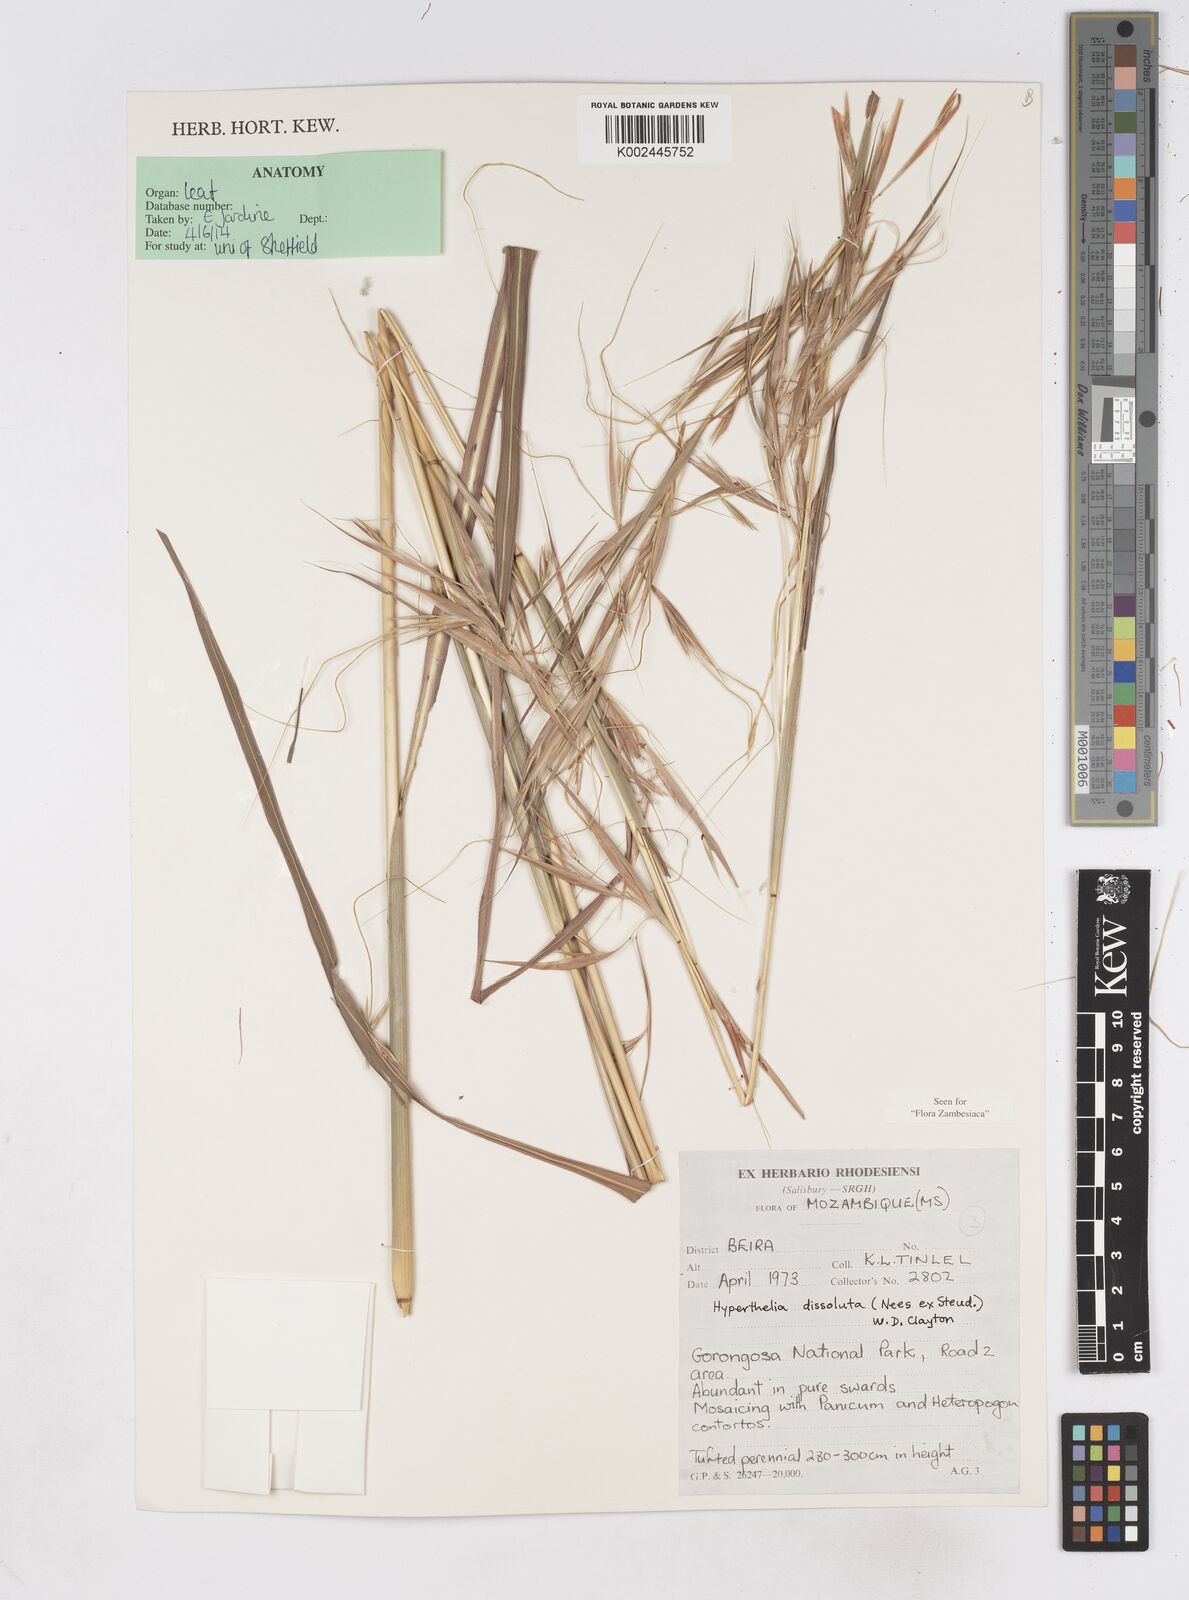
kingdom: Plantae
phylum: Tracheophyta
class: Liliopsida
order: Poales
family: Poaceae
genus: Hyperthelia
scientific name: Hyperthelia dissoluta
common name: Yellow thatching grass
